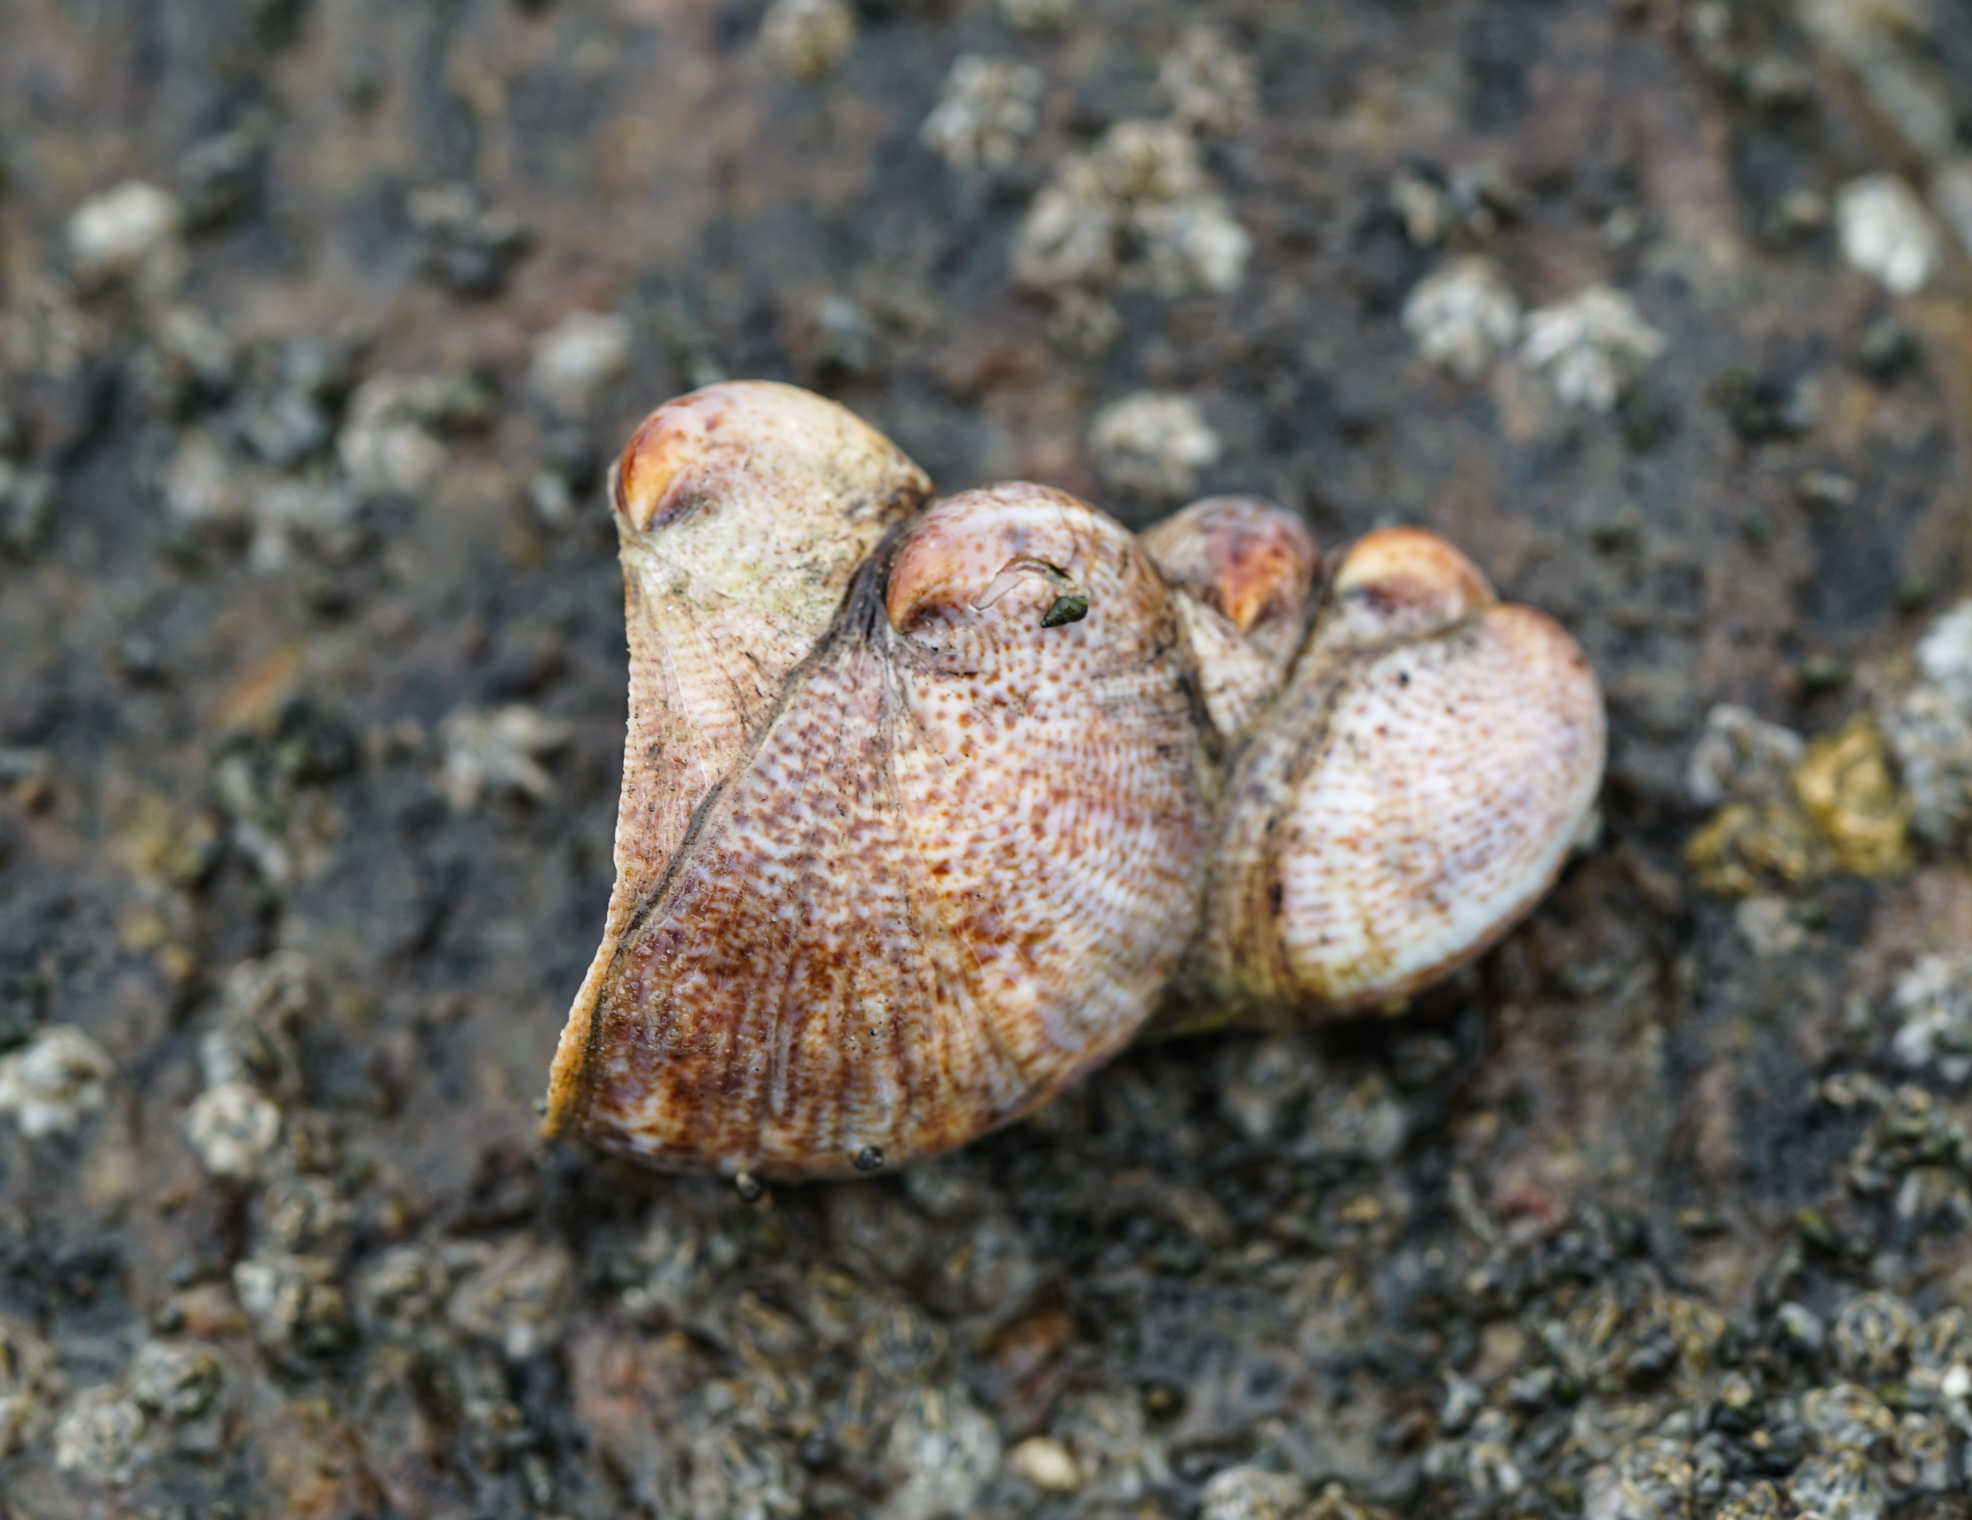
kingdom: Animalia
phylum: Mollusca
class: Gastropoda
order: Littorinimorpha
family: Calyptraeidae
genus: Crepidula
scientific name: Crepidula fornicata
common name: Slipper limpet
